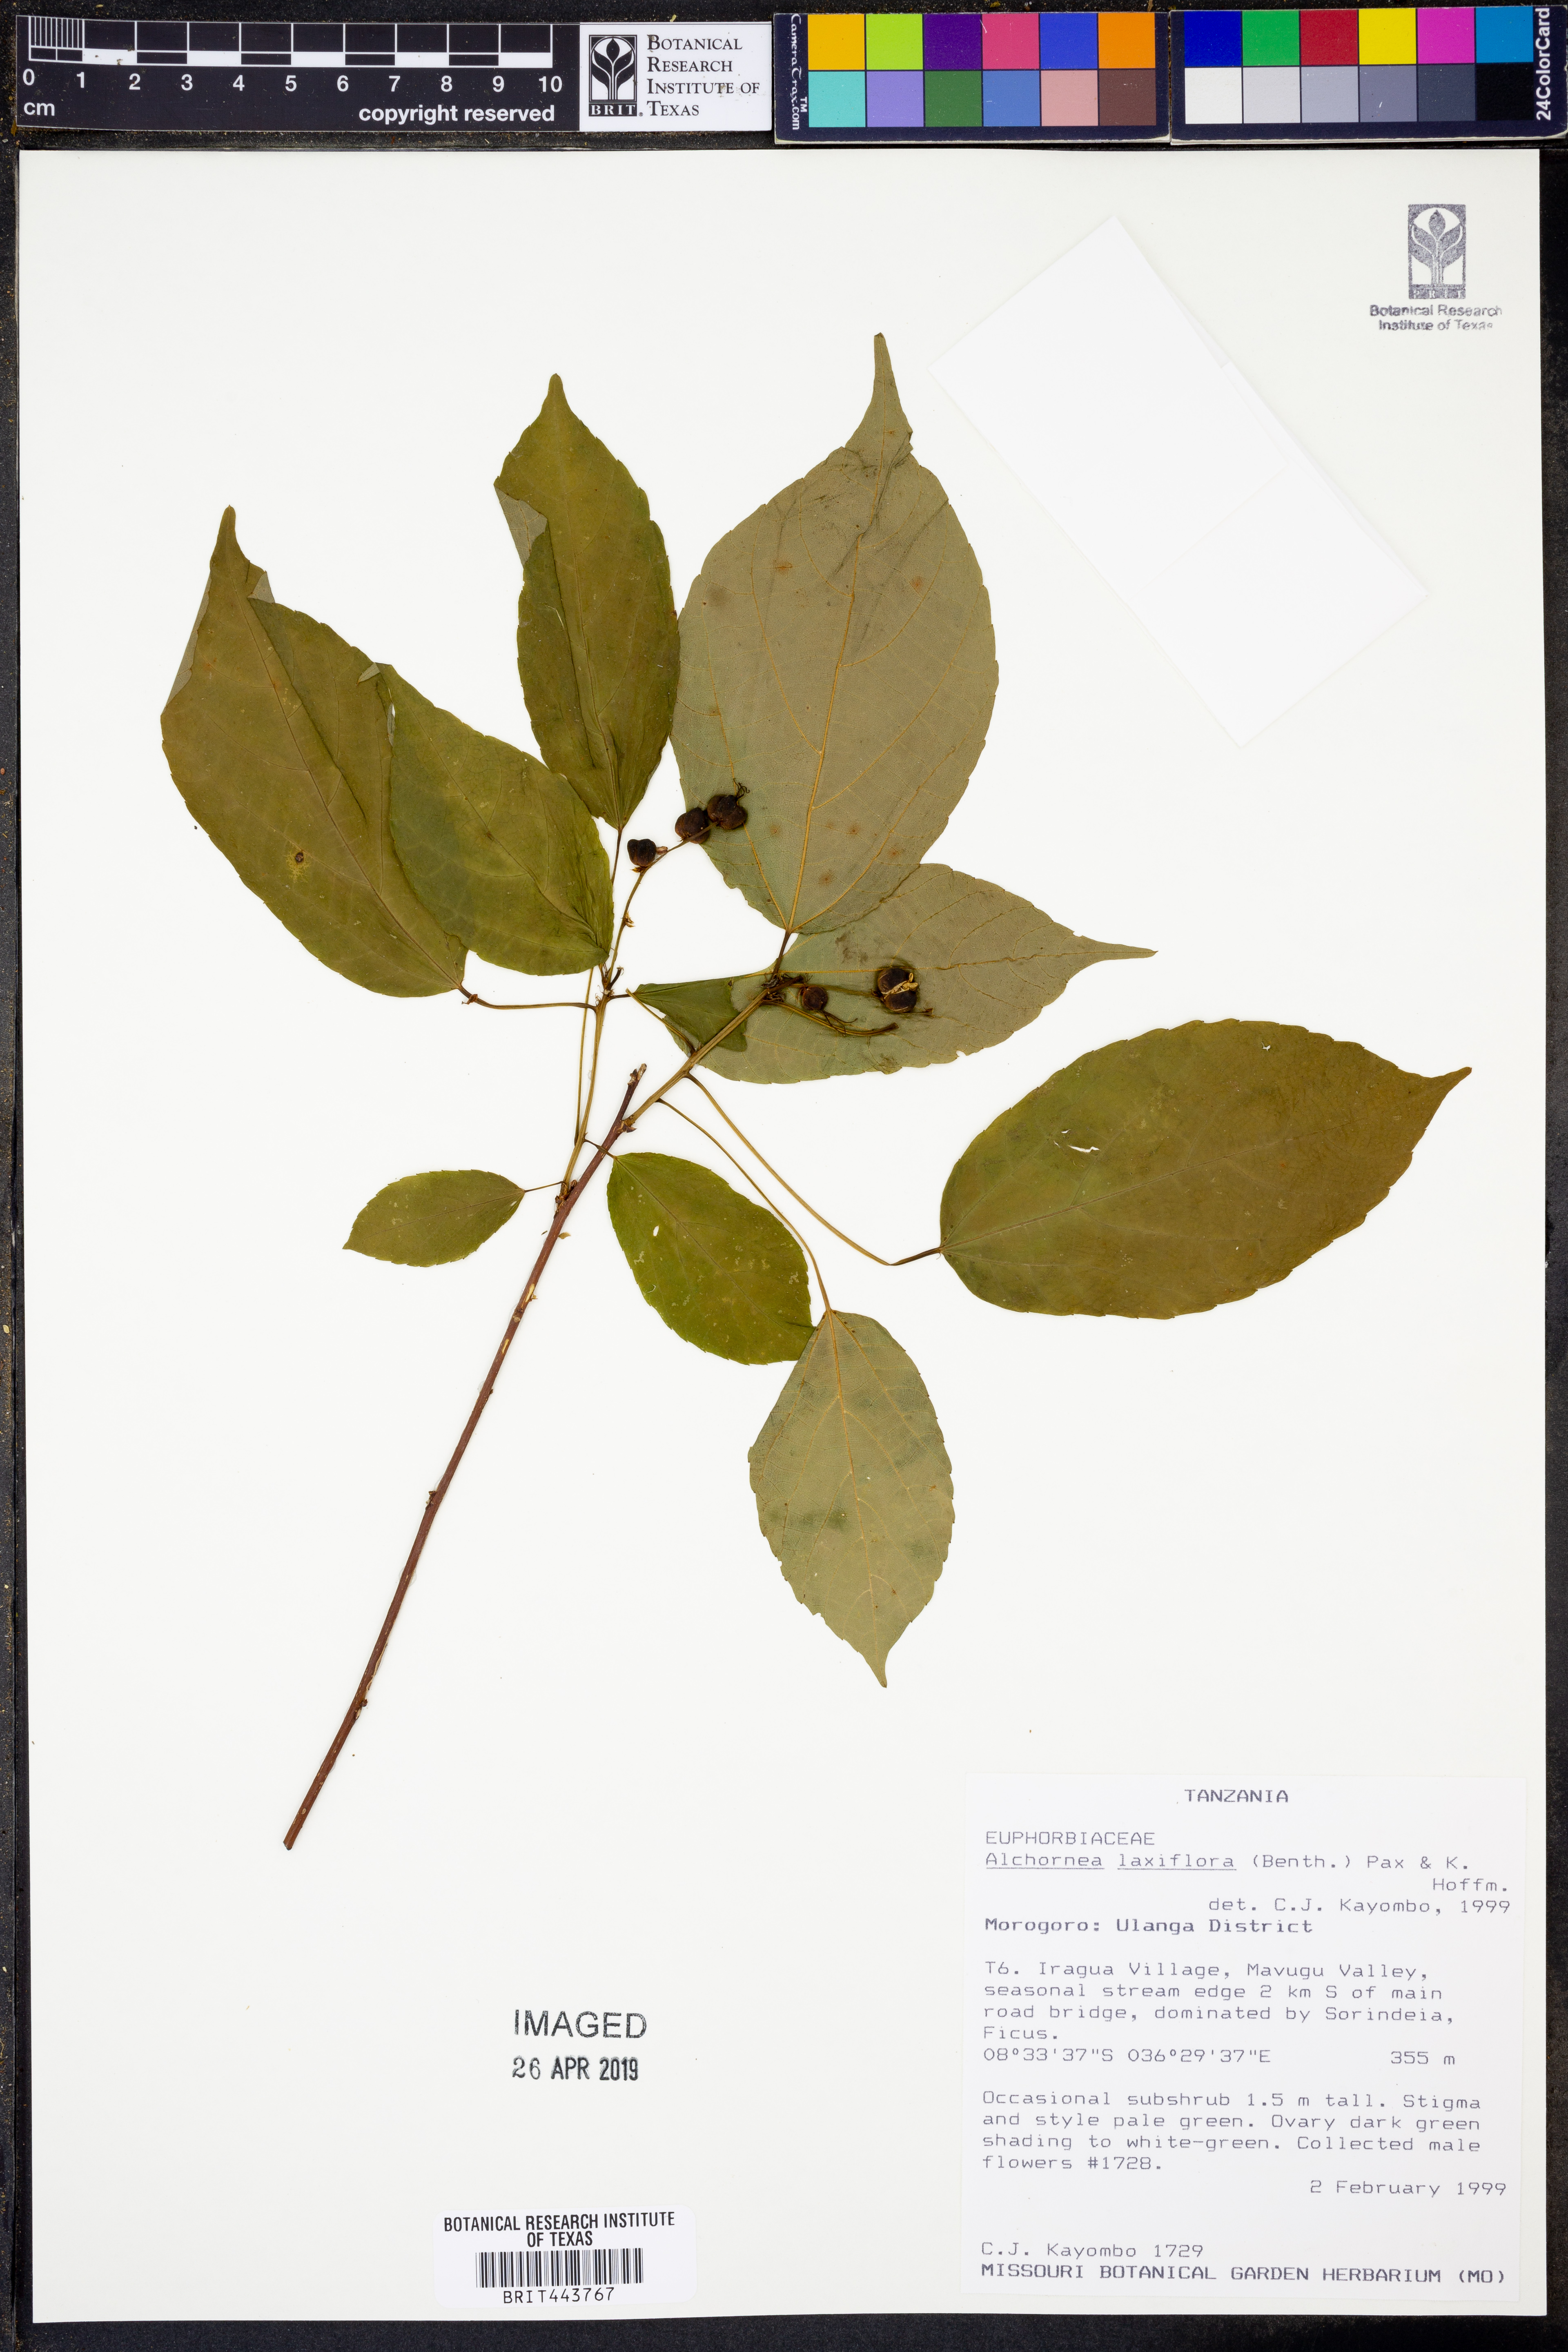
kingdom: Plantae
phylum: Tracheophyta
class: Magnoliopsida
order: Malpighiales
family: Euphorbiaceae
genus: Alchornea
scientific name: Alchornea laxiflora
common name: Lowveld bead-string
